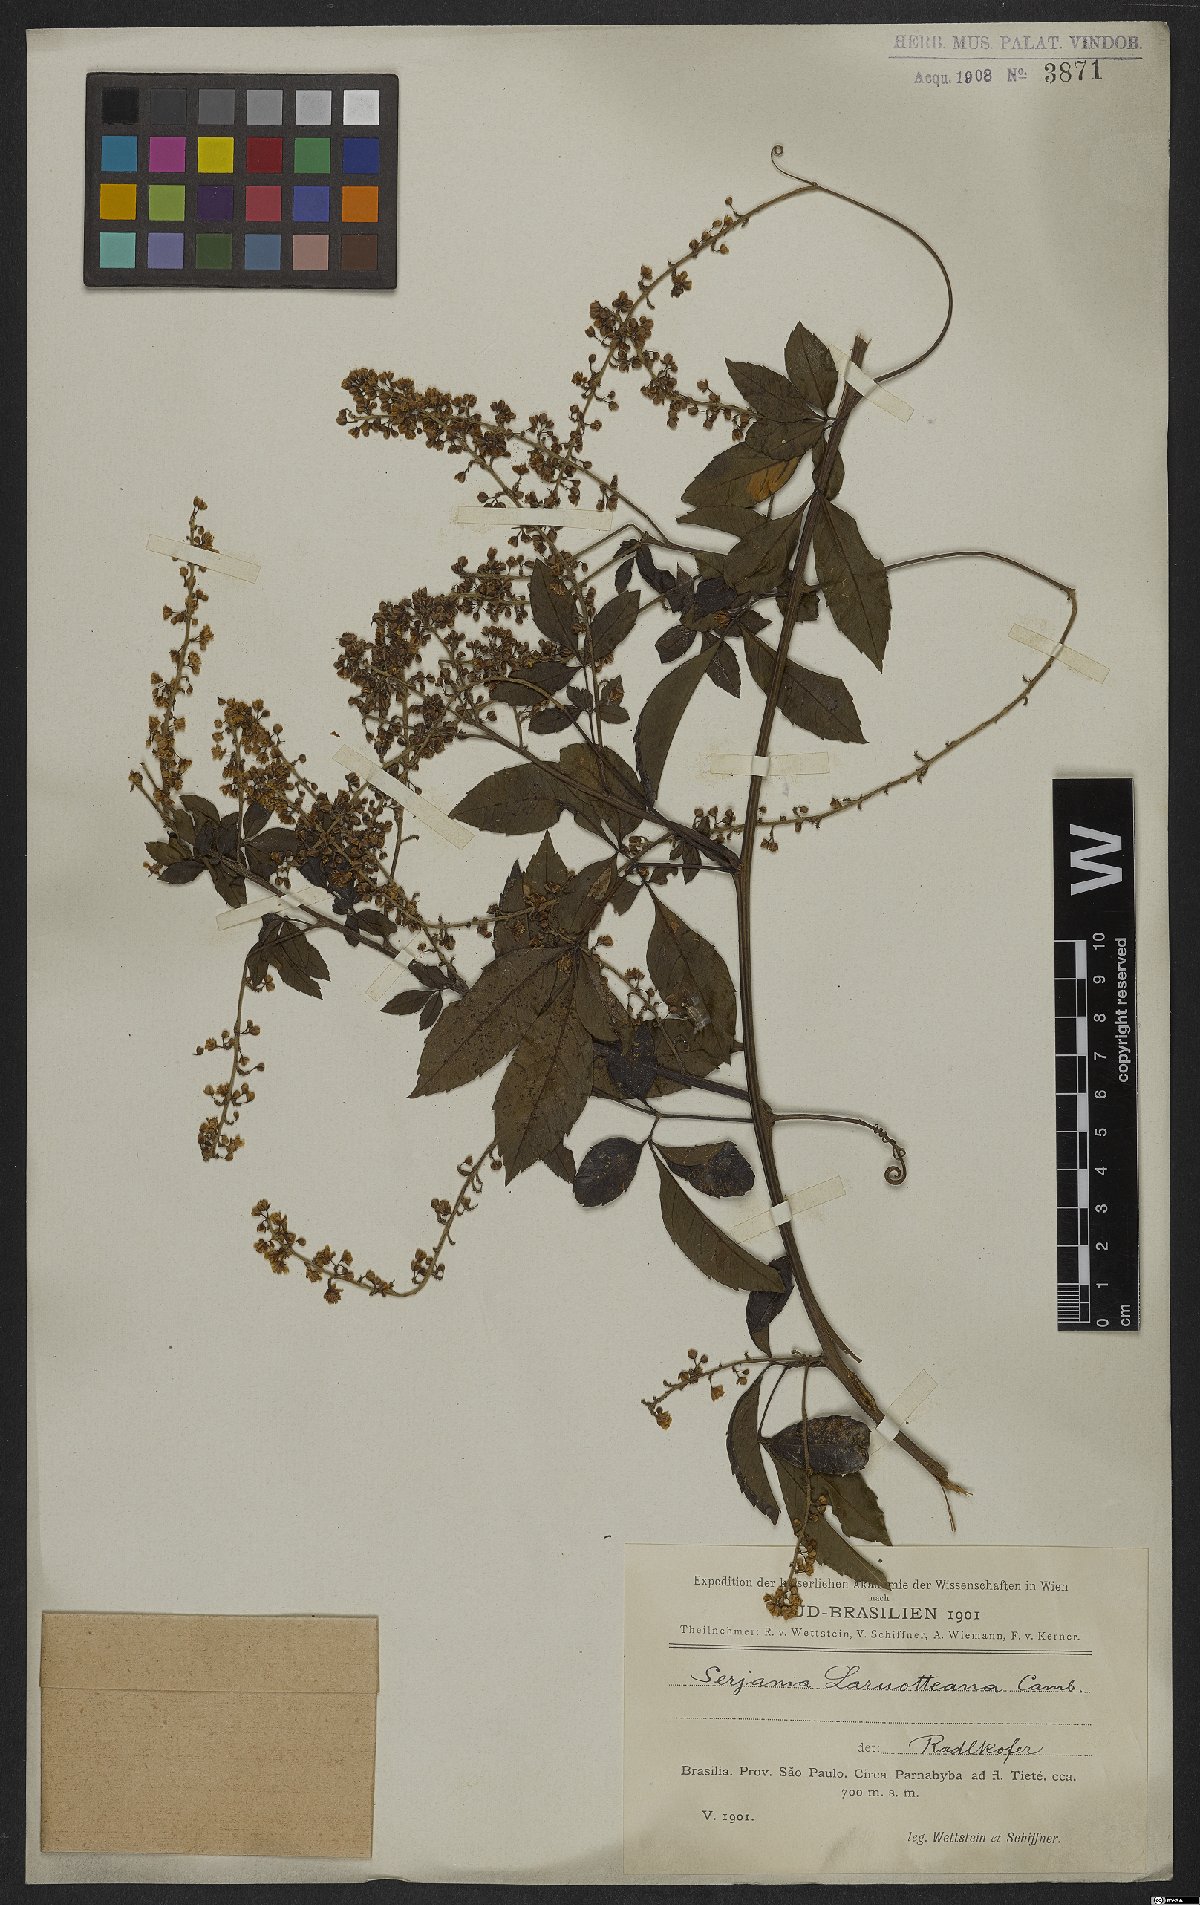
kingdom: Plantae
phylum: Tracheophyta
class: Magnoliopsida
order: Sapindales
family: Sapindaceae
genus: Serjania
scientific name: Serjania laruotteana
